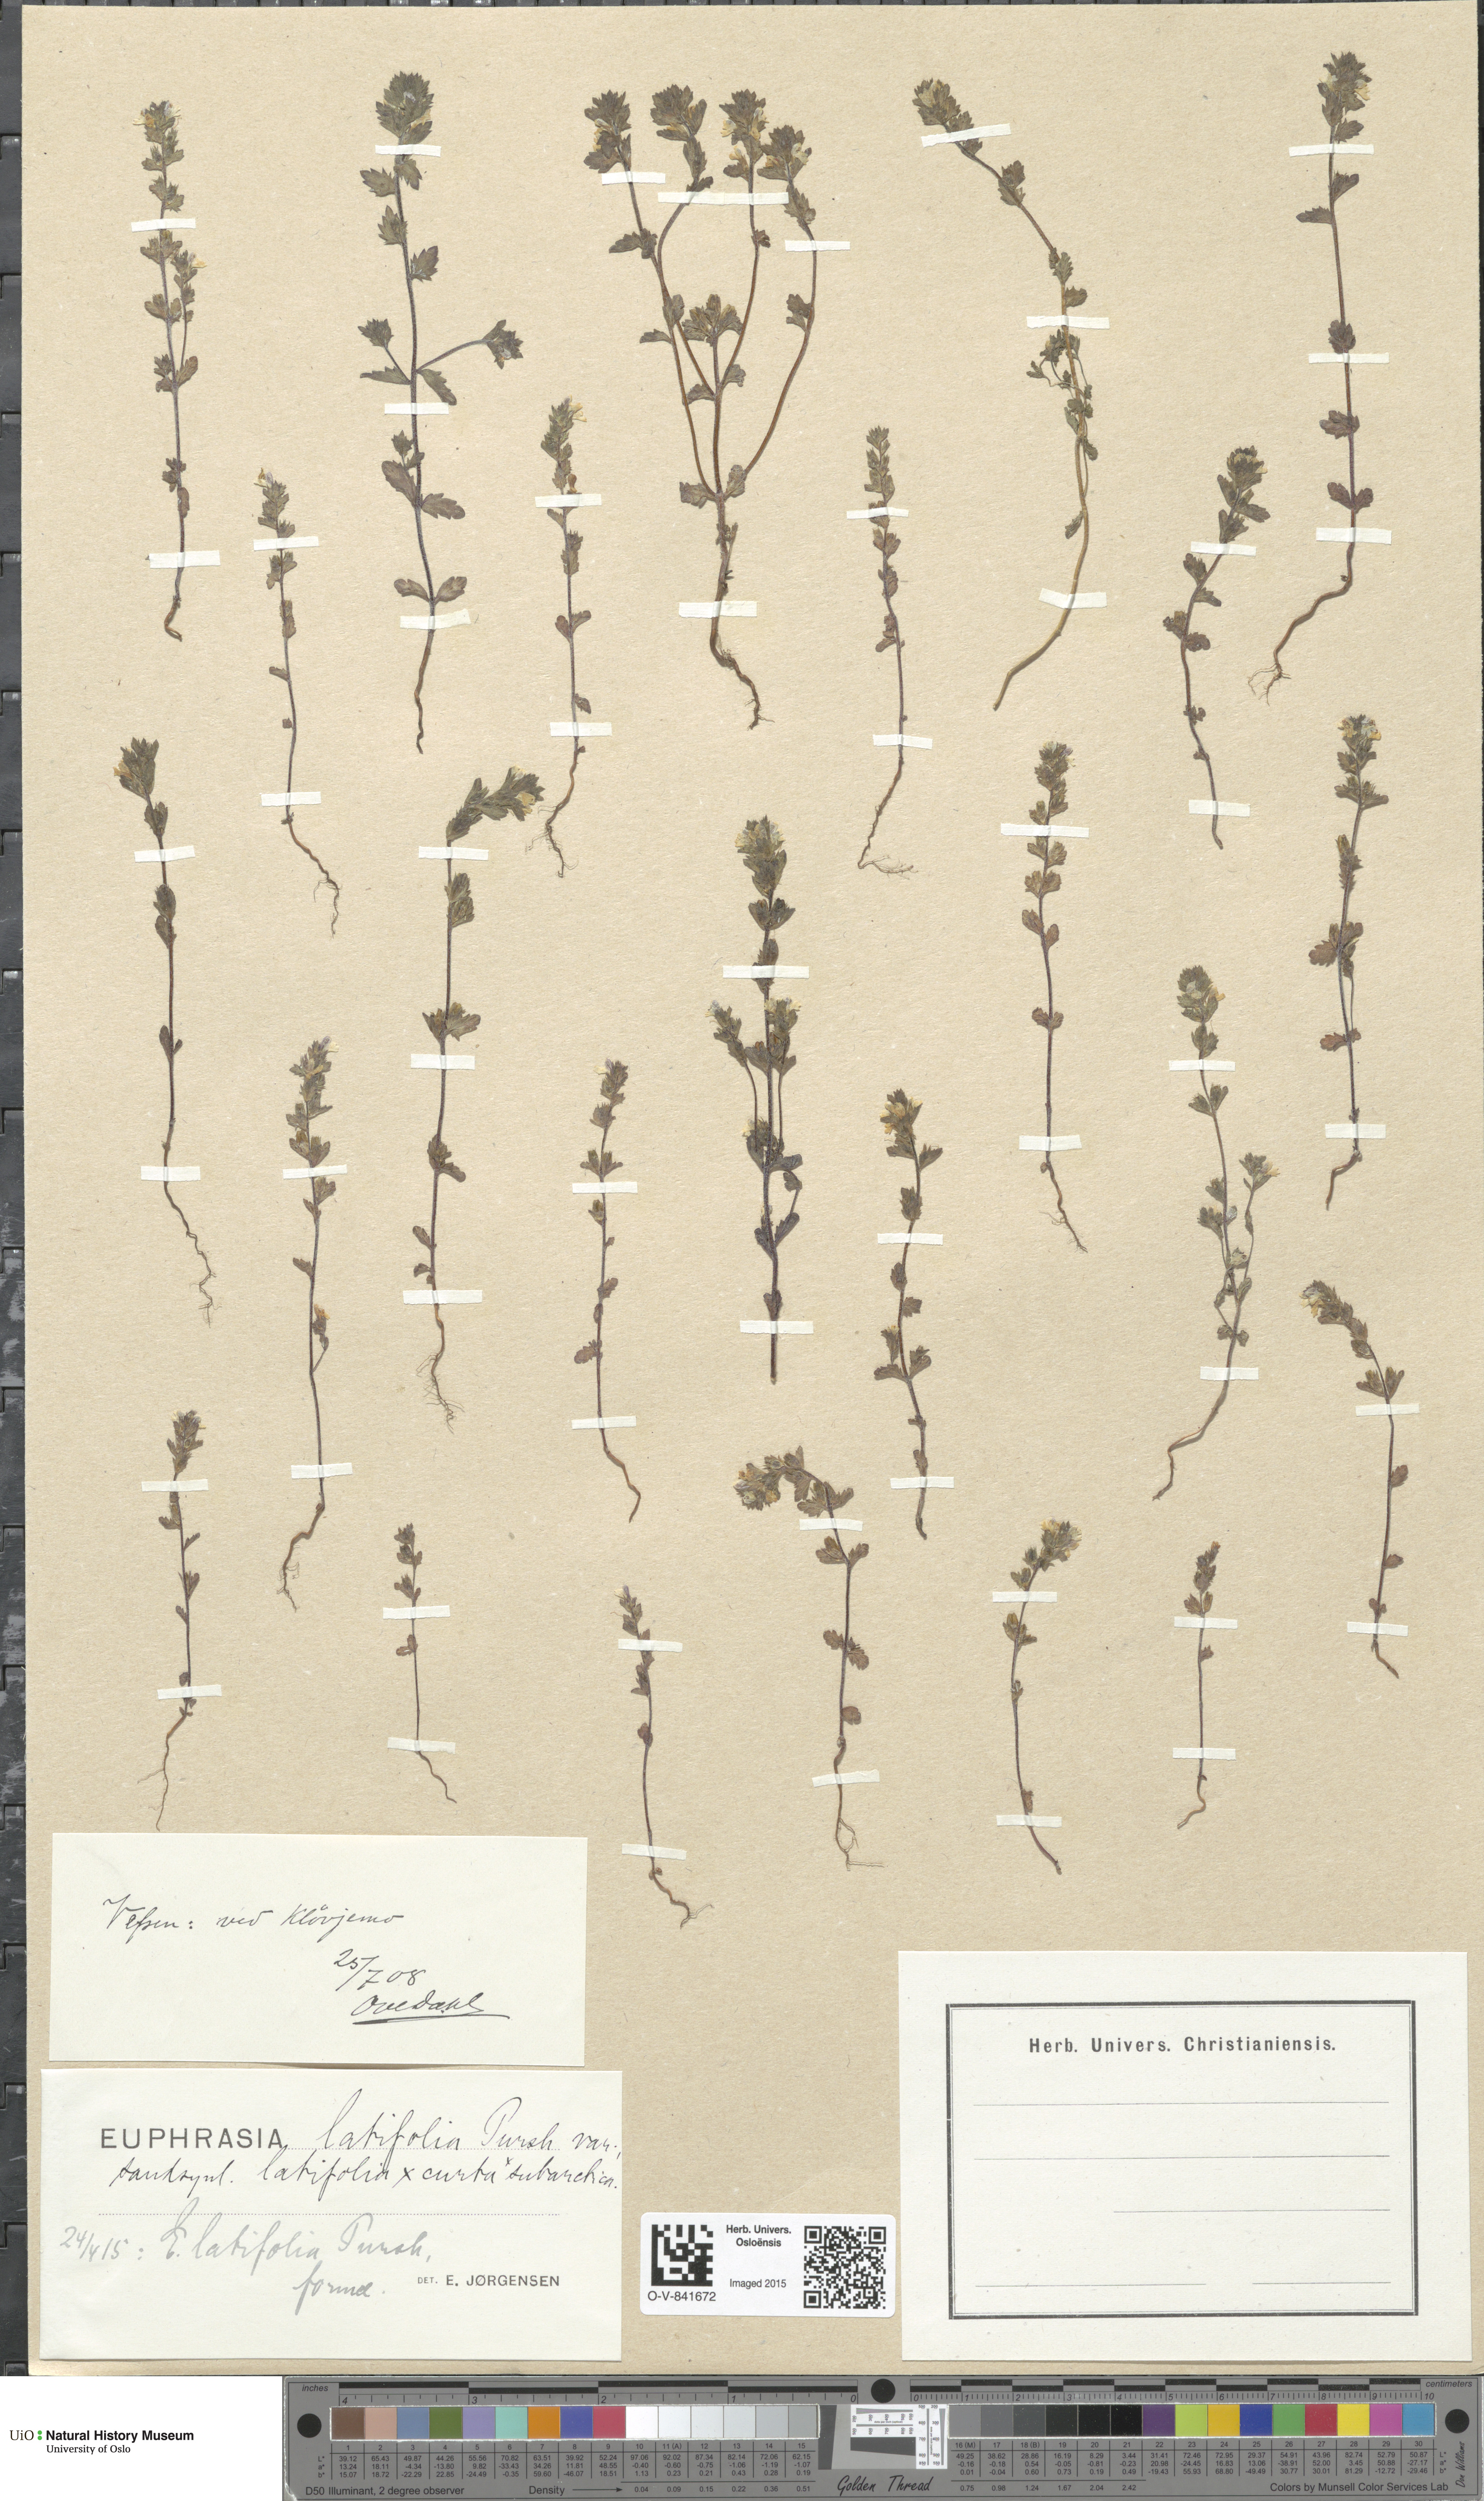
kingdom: Plantae
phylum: Tracheophyta
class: Magnoliopsida
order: Lamiales
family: Orobanchaceae
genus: Euphrasia
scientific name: Euphrasia wettsteinii
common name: Wettstein's eyebright
